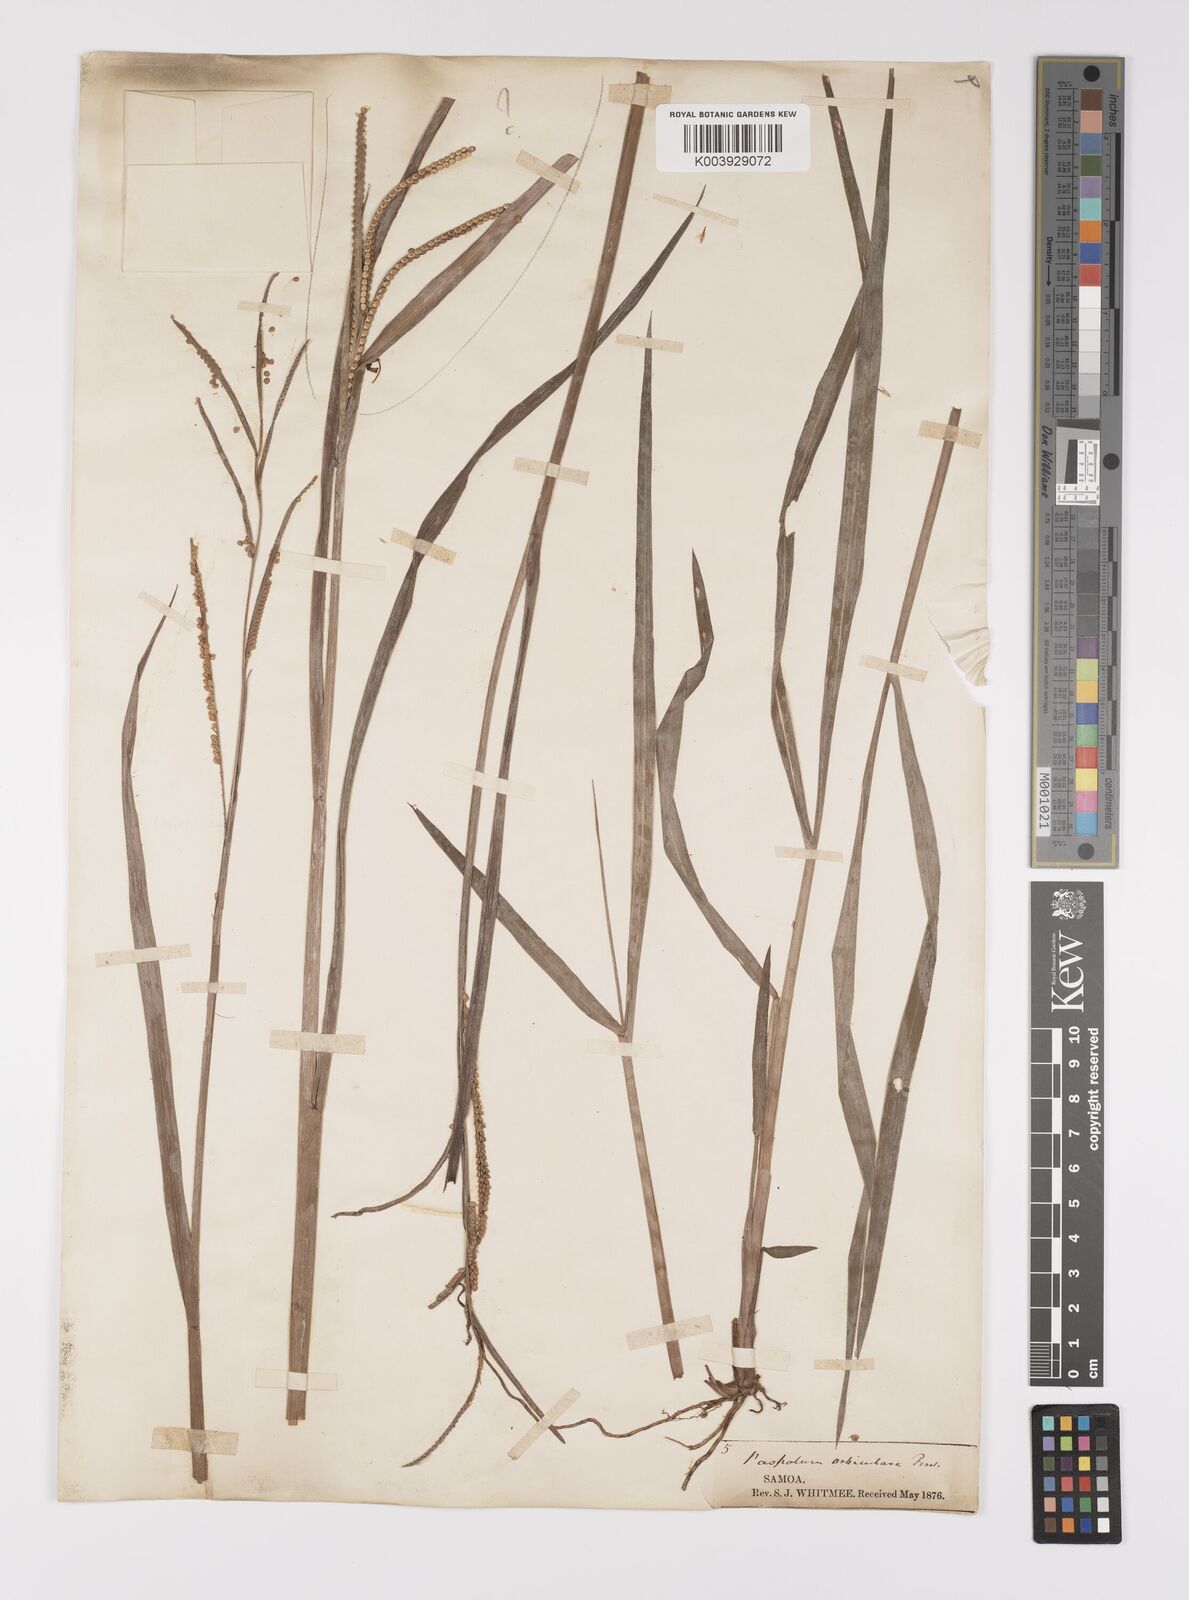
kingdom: Plantae
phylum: Tracheophyta
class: Liliopsida
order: Poales
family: Poaceae
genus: Paspalum
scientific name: Paspalum scrobiculatum
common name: Kodo millet
